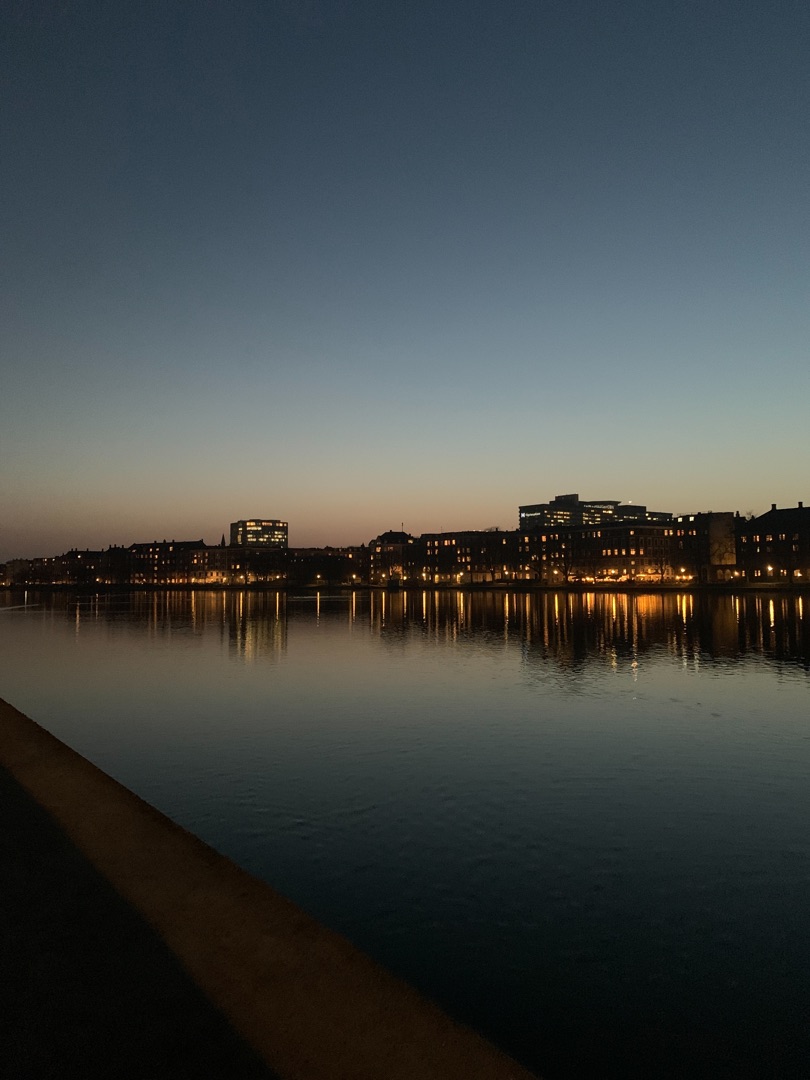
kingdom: Animalia
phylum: Chordata
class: Mammalia
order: Chiroptera
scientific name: Chiroptera
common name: Flagermus
